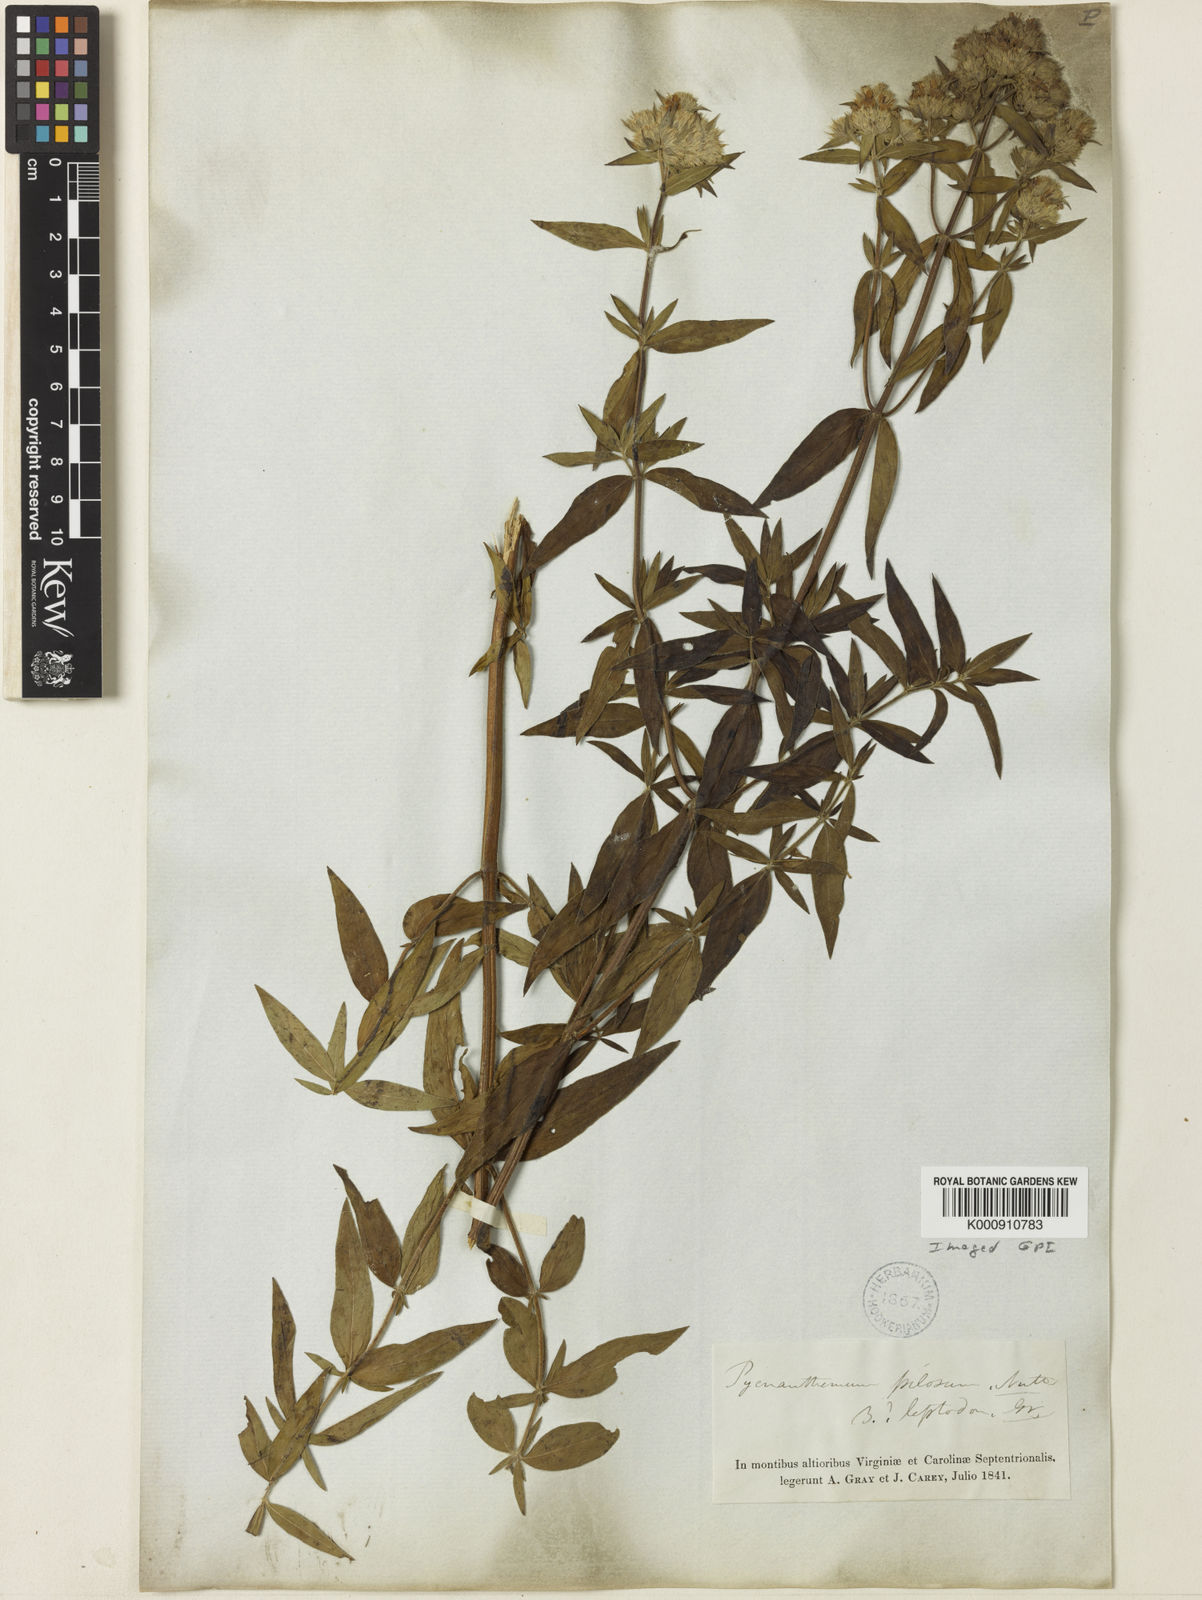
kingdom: Plantae
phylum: Tracheophyta
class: Magnoliopsida
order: Lamiales
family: Lamiaceae
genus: Pycnanthemum
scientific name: Pycnanthemum muticum
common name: Blunt mountain-mint
